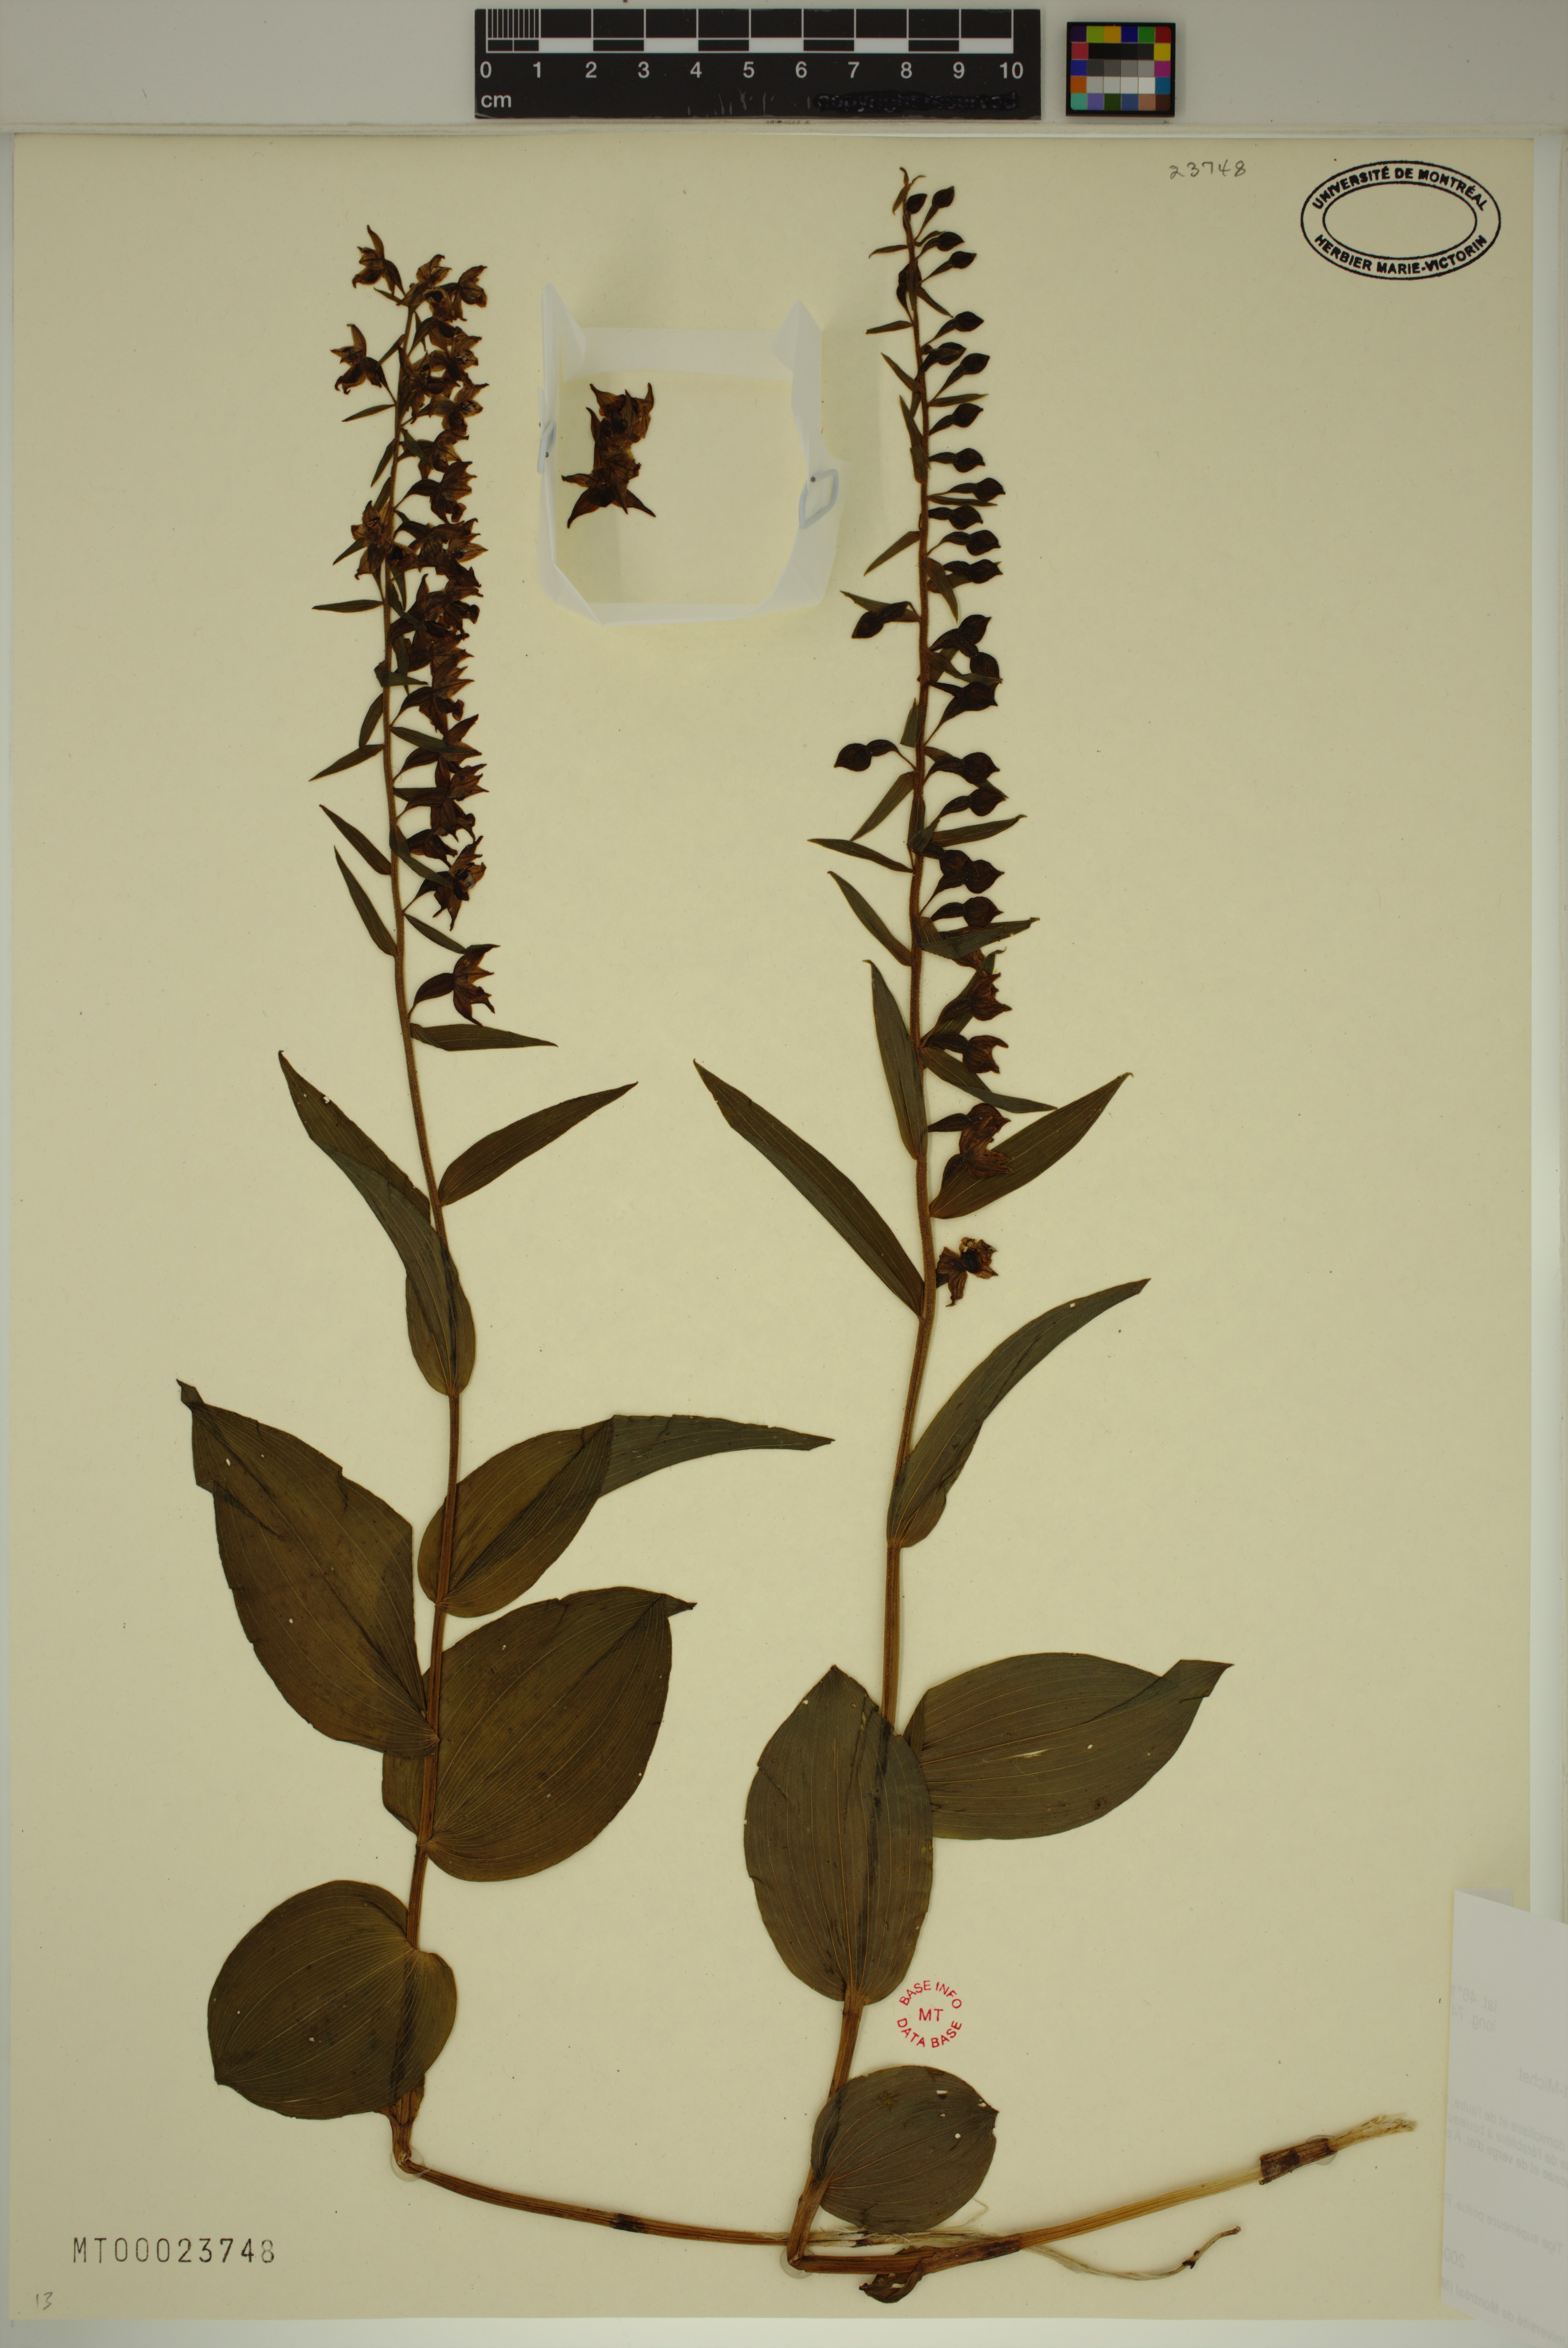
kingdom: Plantae
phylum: Tracheophyta
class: Liliopsida
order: Asparagales
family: Orchidaceae
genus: Epipactis
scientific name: Epipactis helleborine
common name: Broad-leaved helleborine
